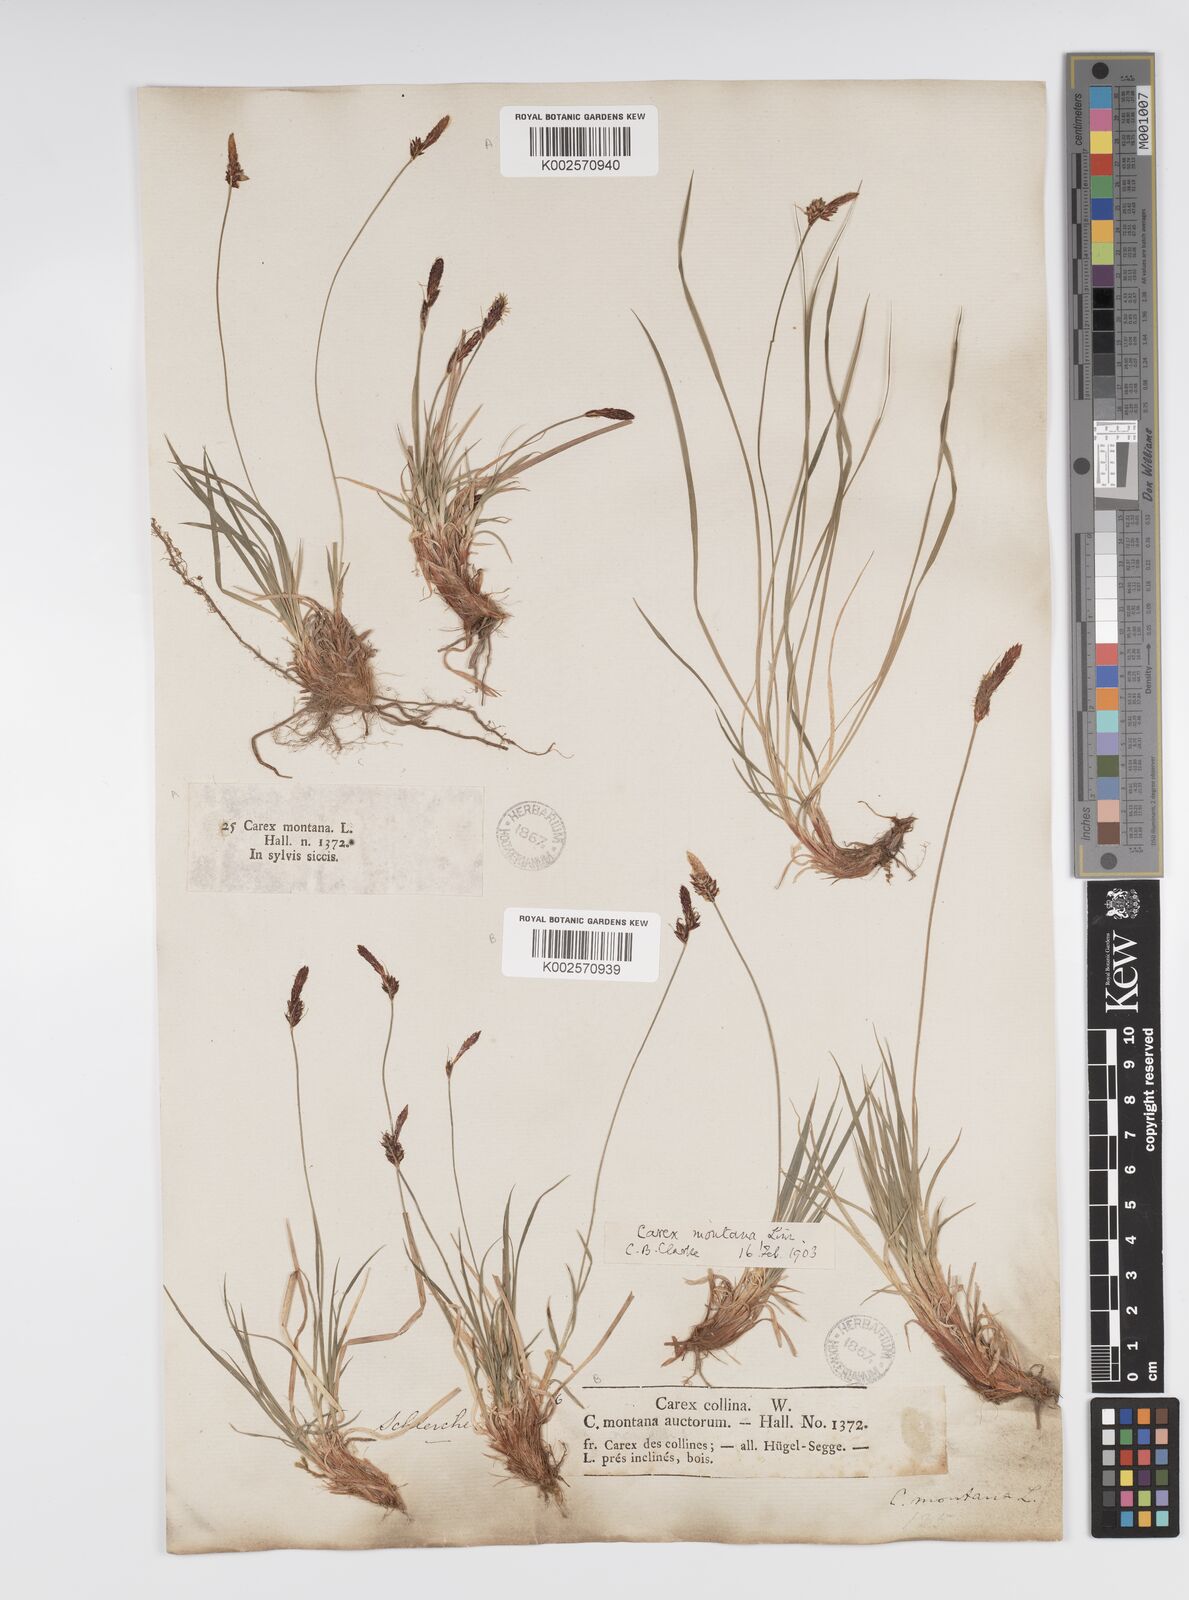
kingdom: Plantae
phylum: Tracheophyta
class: Liliopsida
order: Poales
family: Cyperaceae
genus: Carex
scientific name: Carex montana
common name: Soft-leaved sedge
